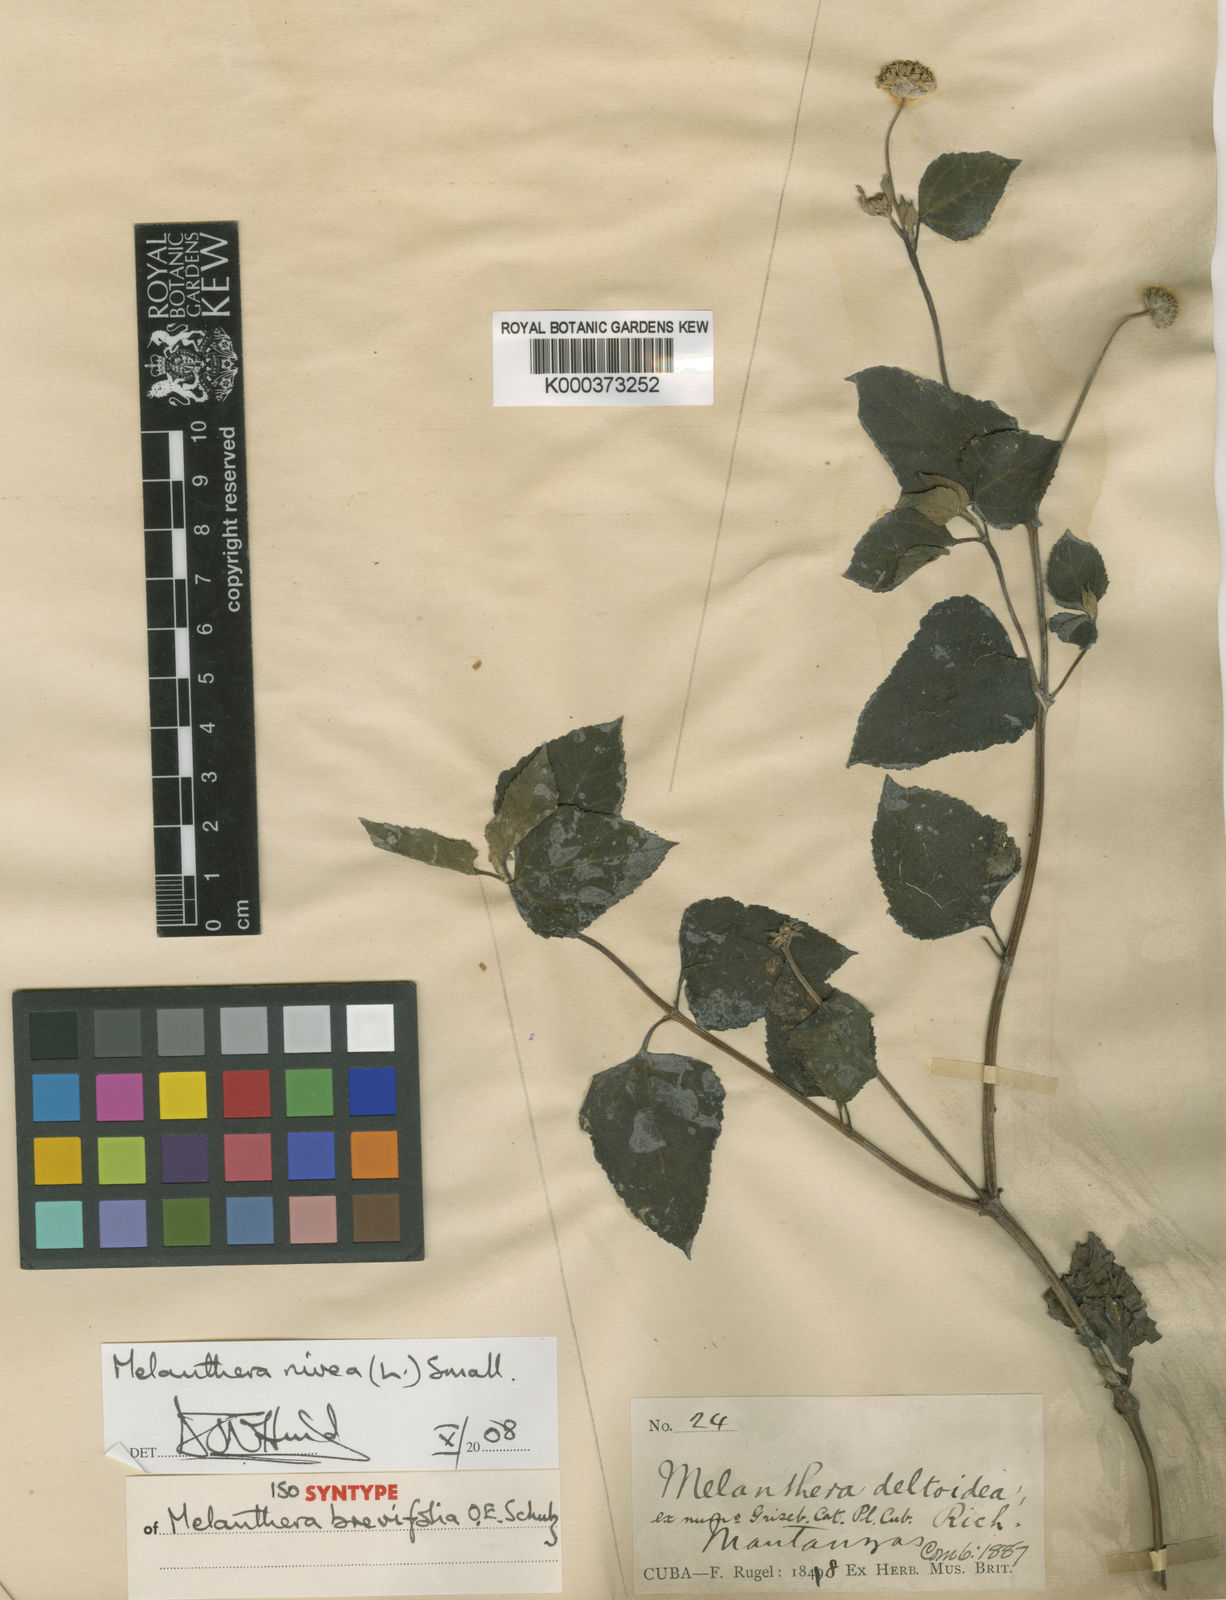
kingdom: Plantae
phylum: Tracheophyta
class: Magnoliopsida
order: Asterales
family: Asteraceae
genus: Melanthera
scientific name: Melanthera nivea
